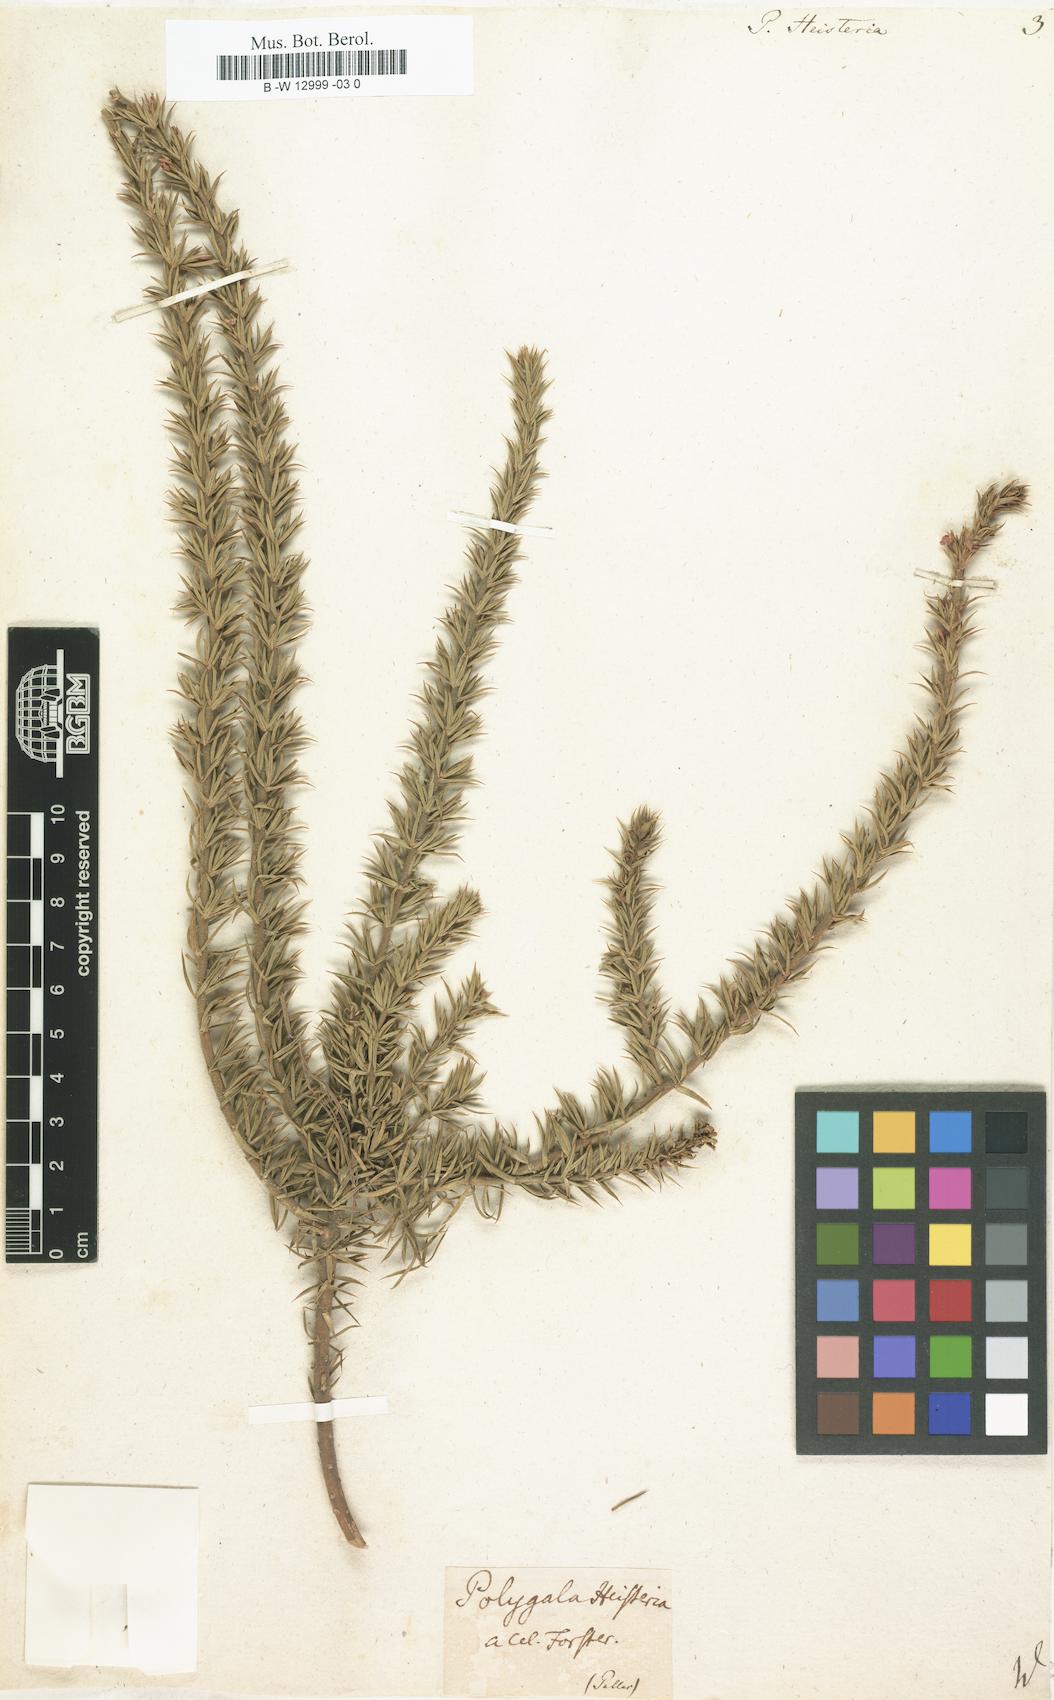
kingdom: Plantae
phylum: Tracheophyta
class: Magnoliopsida
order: Fabales
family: Polygalaceae
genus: Muraltia
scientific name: Muraltia heisteria
